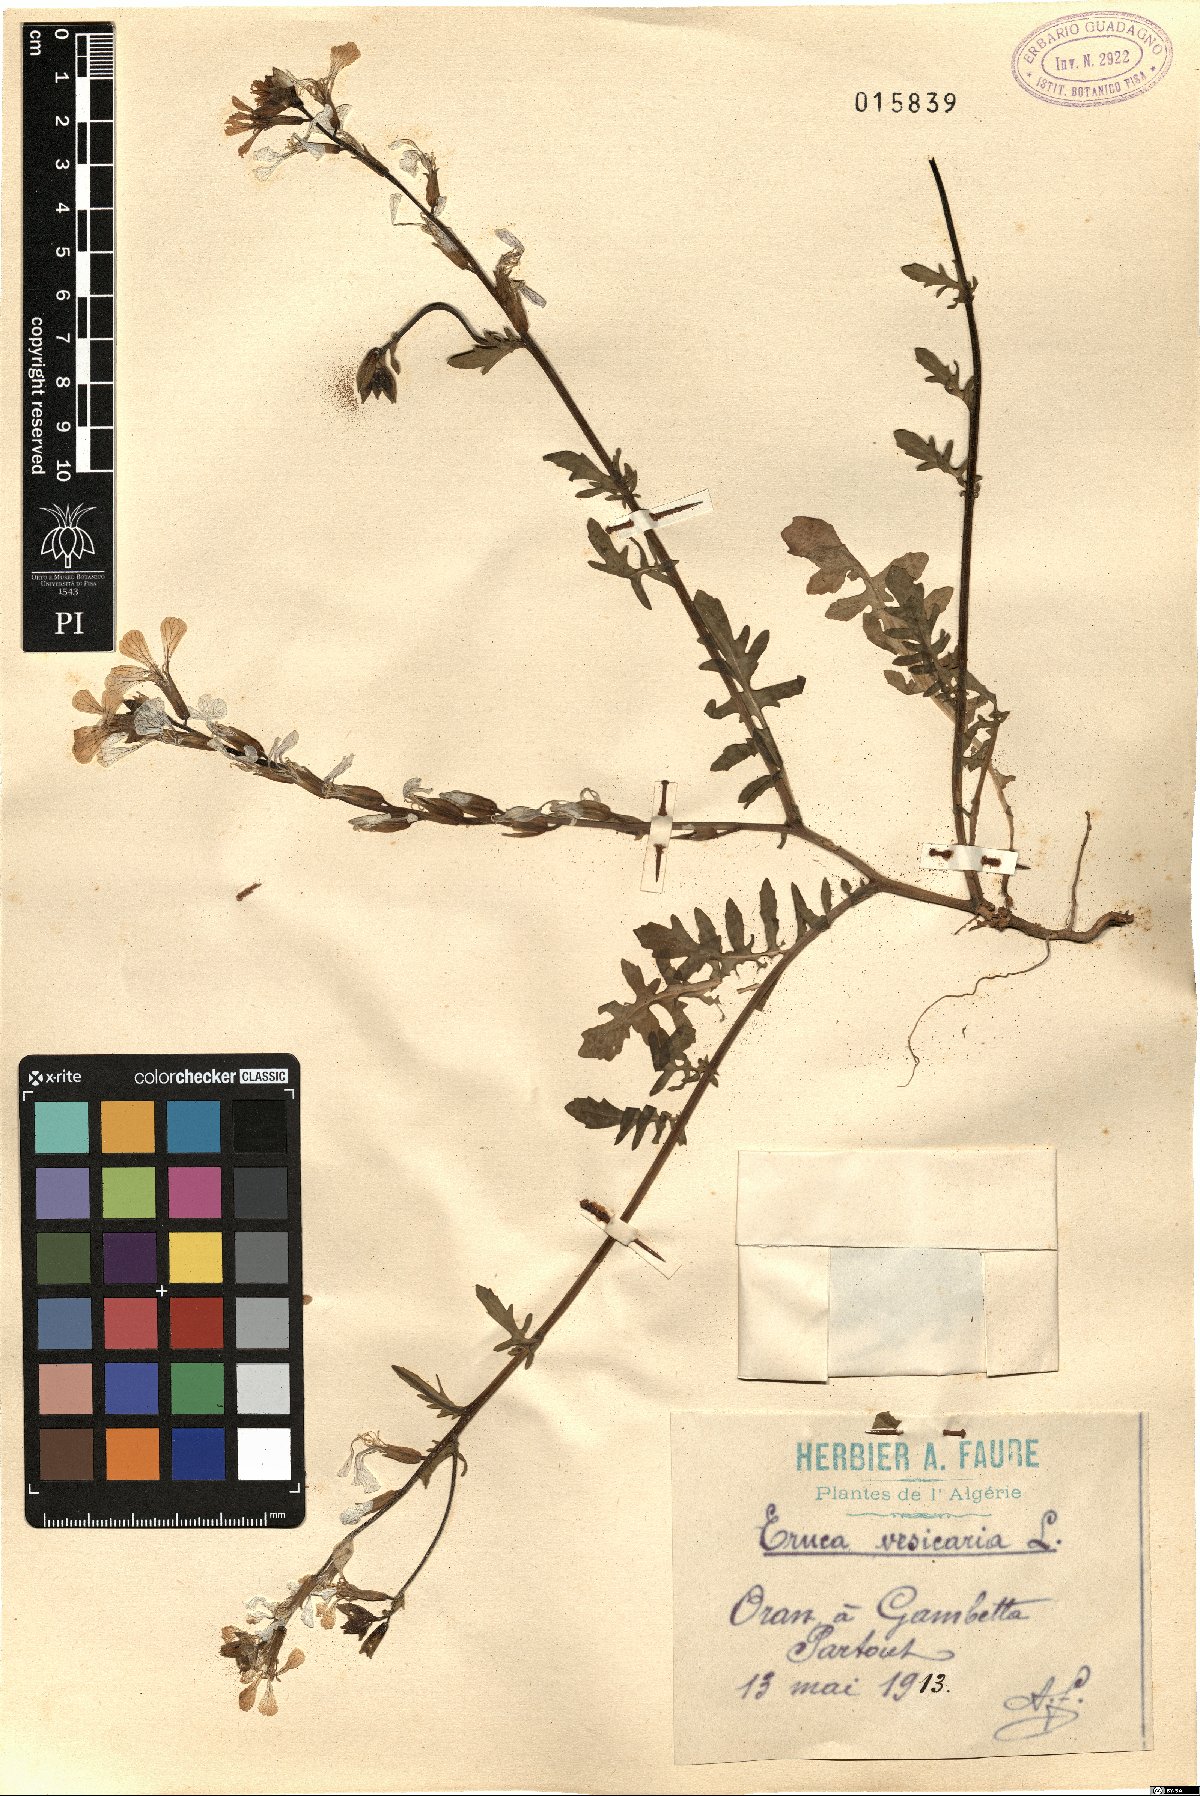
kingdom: Plantae
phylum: Tracheophyta
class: Magnoliopsida
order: Brassicales
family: Brassicaceae
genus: Eruca
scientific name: Eruca vesicaria
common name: Garden rocket
